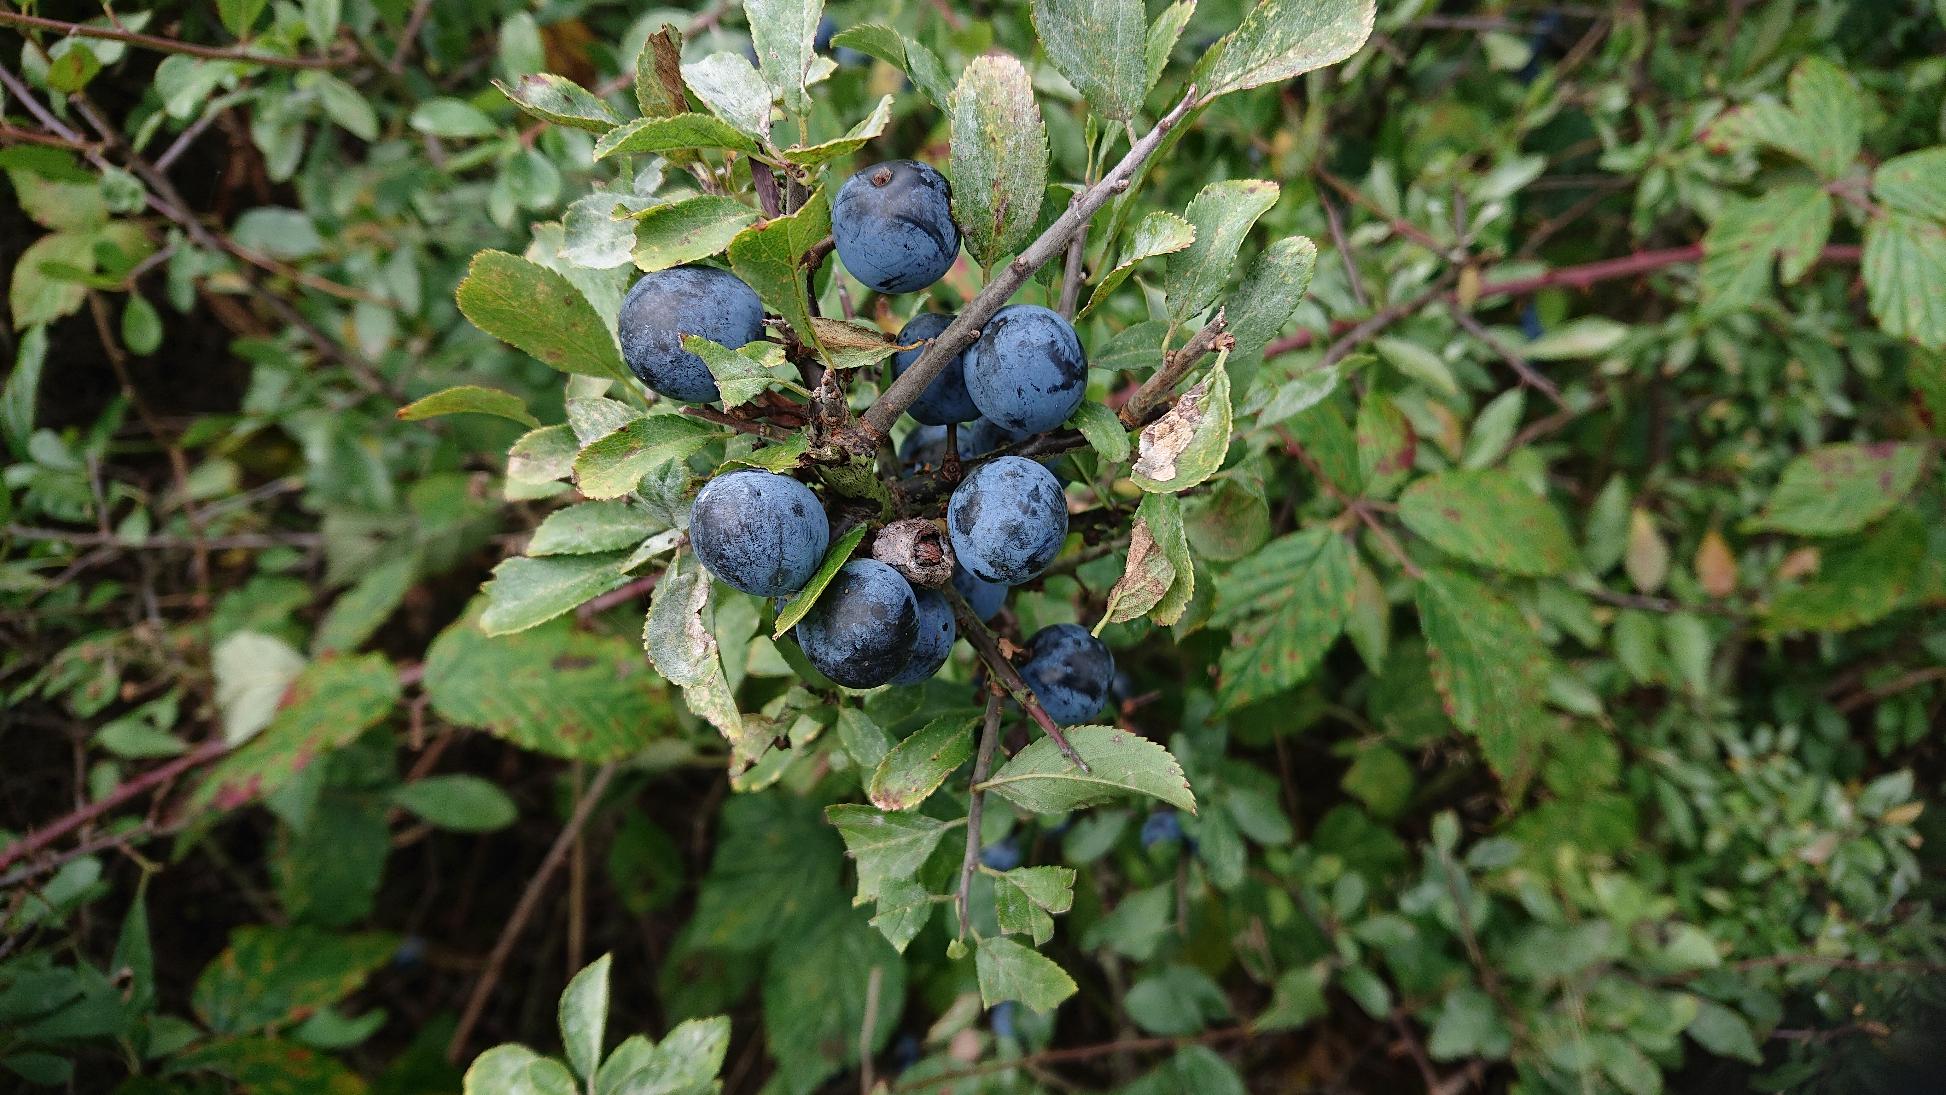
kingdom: Plantae
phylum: Tracheophyta
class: Magnoliopsida
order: Rosales
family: Rosaceae
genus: Prunus
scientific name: Prunus spinosa
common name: Slåen
